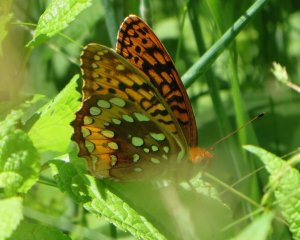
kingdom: Animalia
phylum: Arthropoda
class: Insecta
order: Lepidoptera
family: Nymphalidae
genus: Speyeria
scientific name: Speyeria cybele
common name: Great Spangled Fritillary
